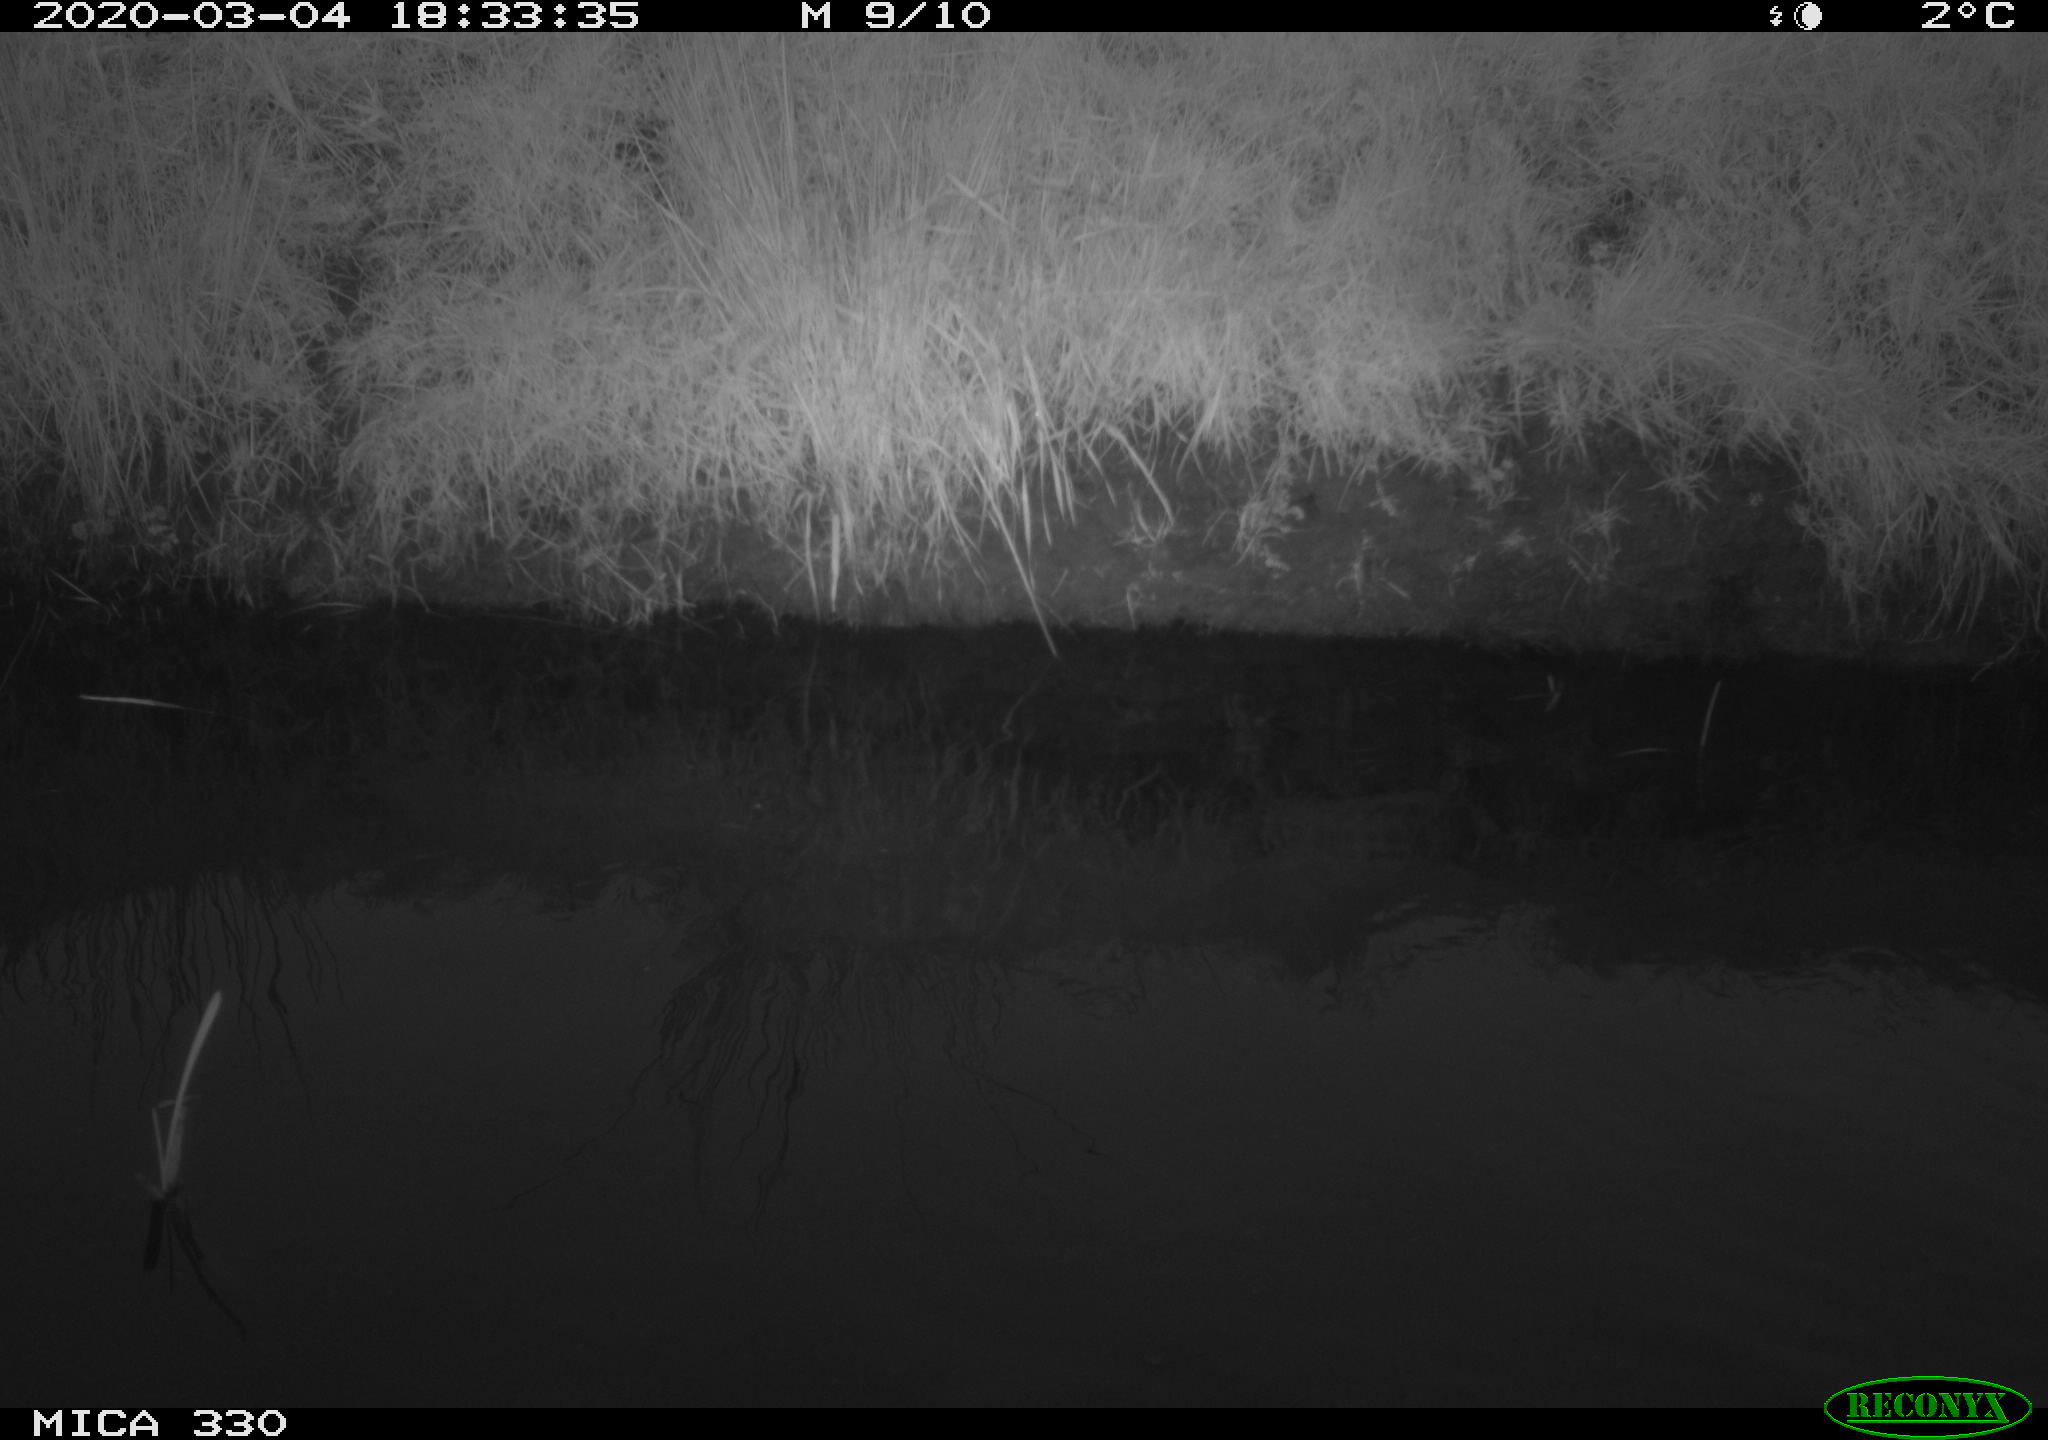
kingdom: Animalia
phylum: Chordata
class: Aves
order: Anseriformes
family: Anatidae
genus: Anas
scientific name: Anas platyrhynchos
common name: Mallard
